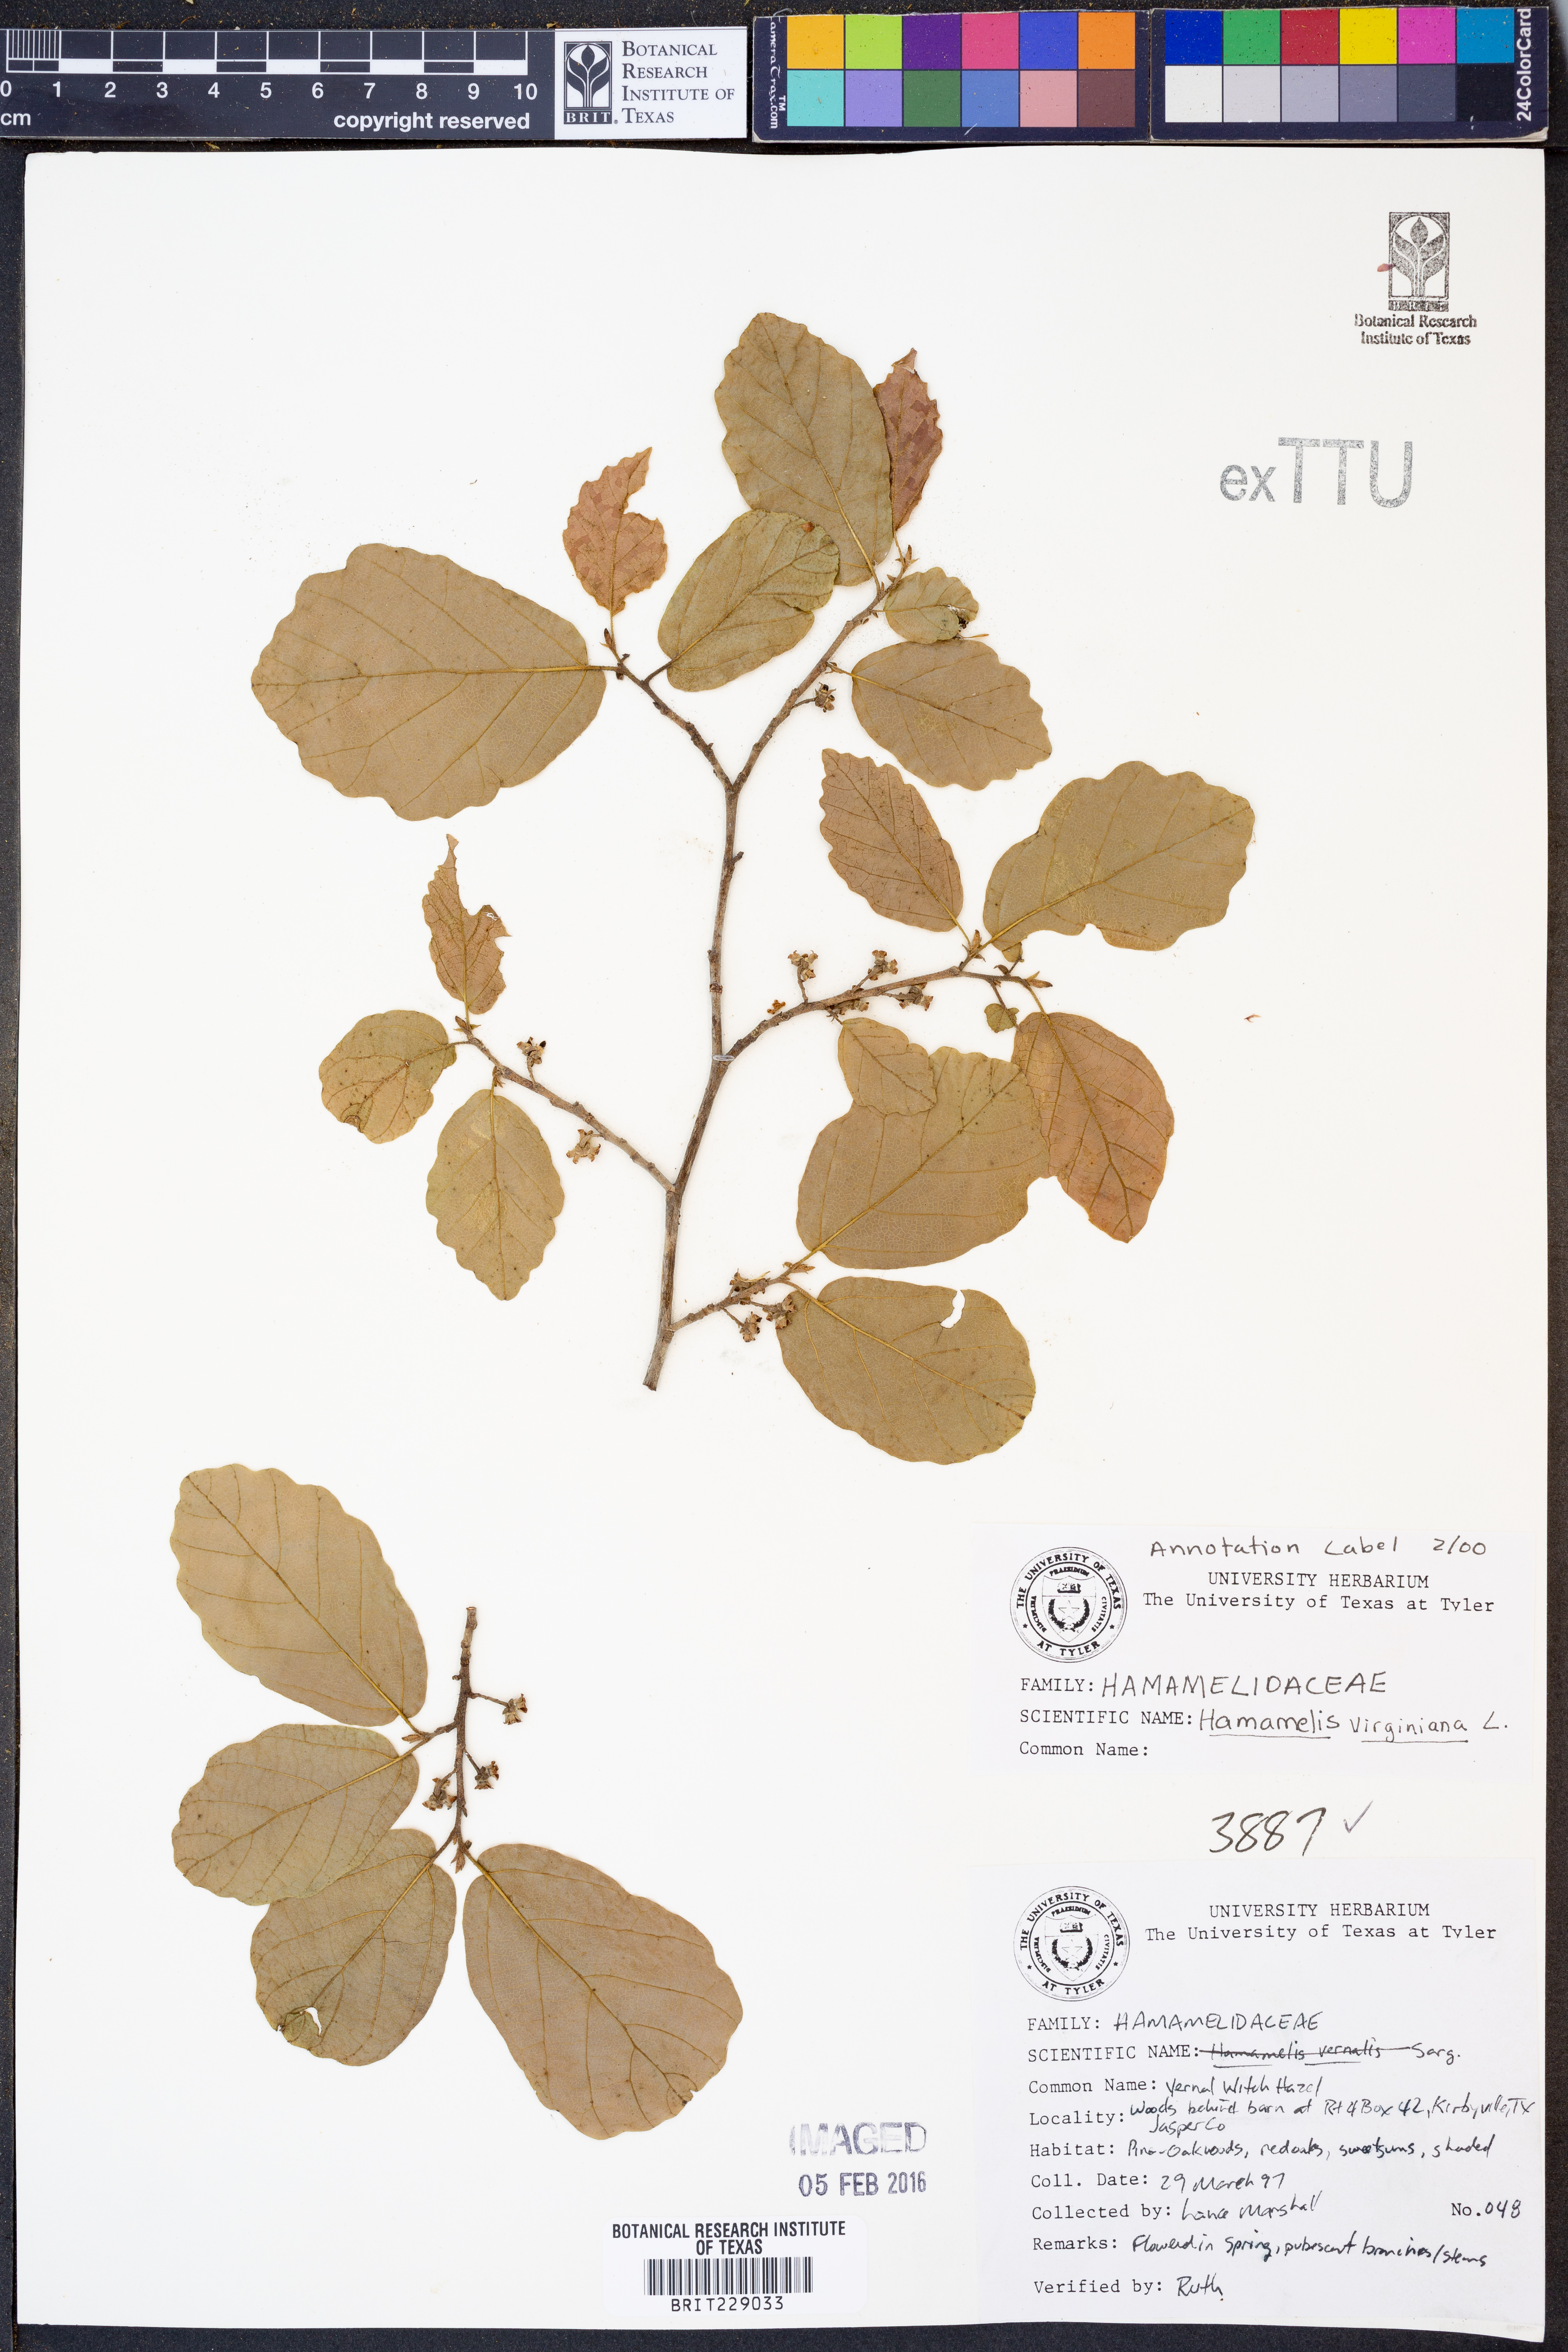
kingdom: Plantae
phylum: Tracheophyta
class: Magnoliopsida
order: Saxifragales
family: Hamamelidaceae
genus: Hamamelis
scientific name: Hamamelis virginiana
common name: Witch-hazel
